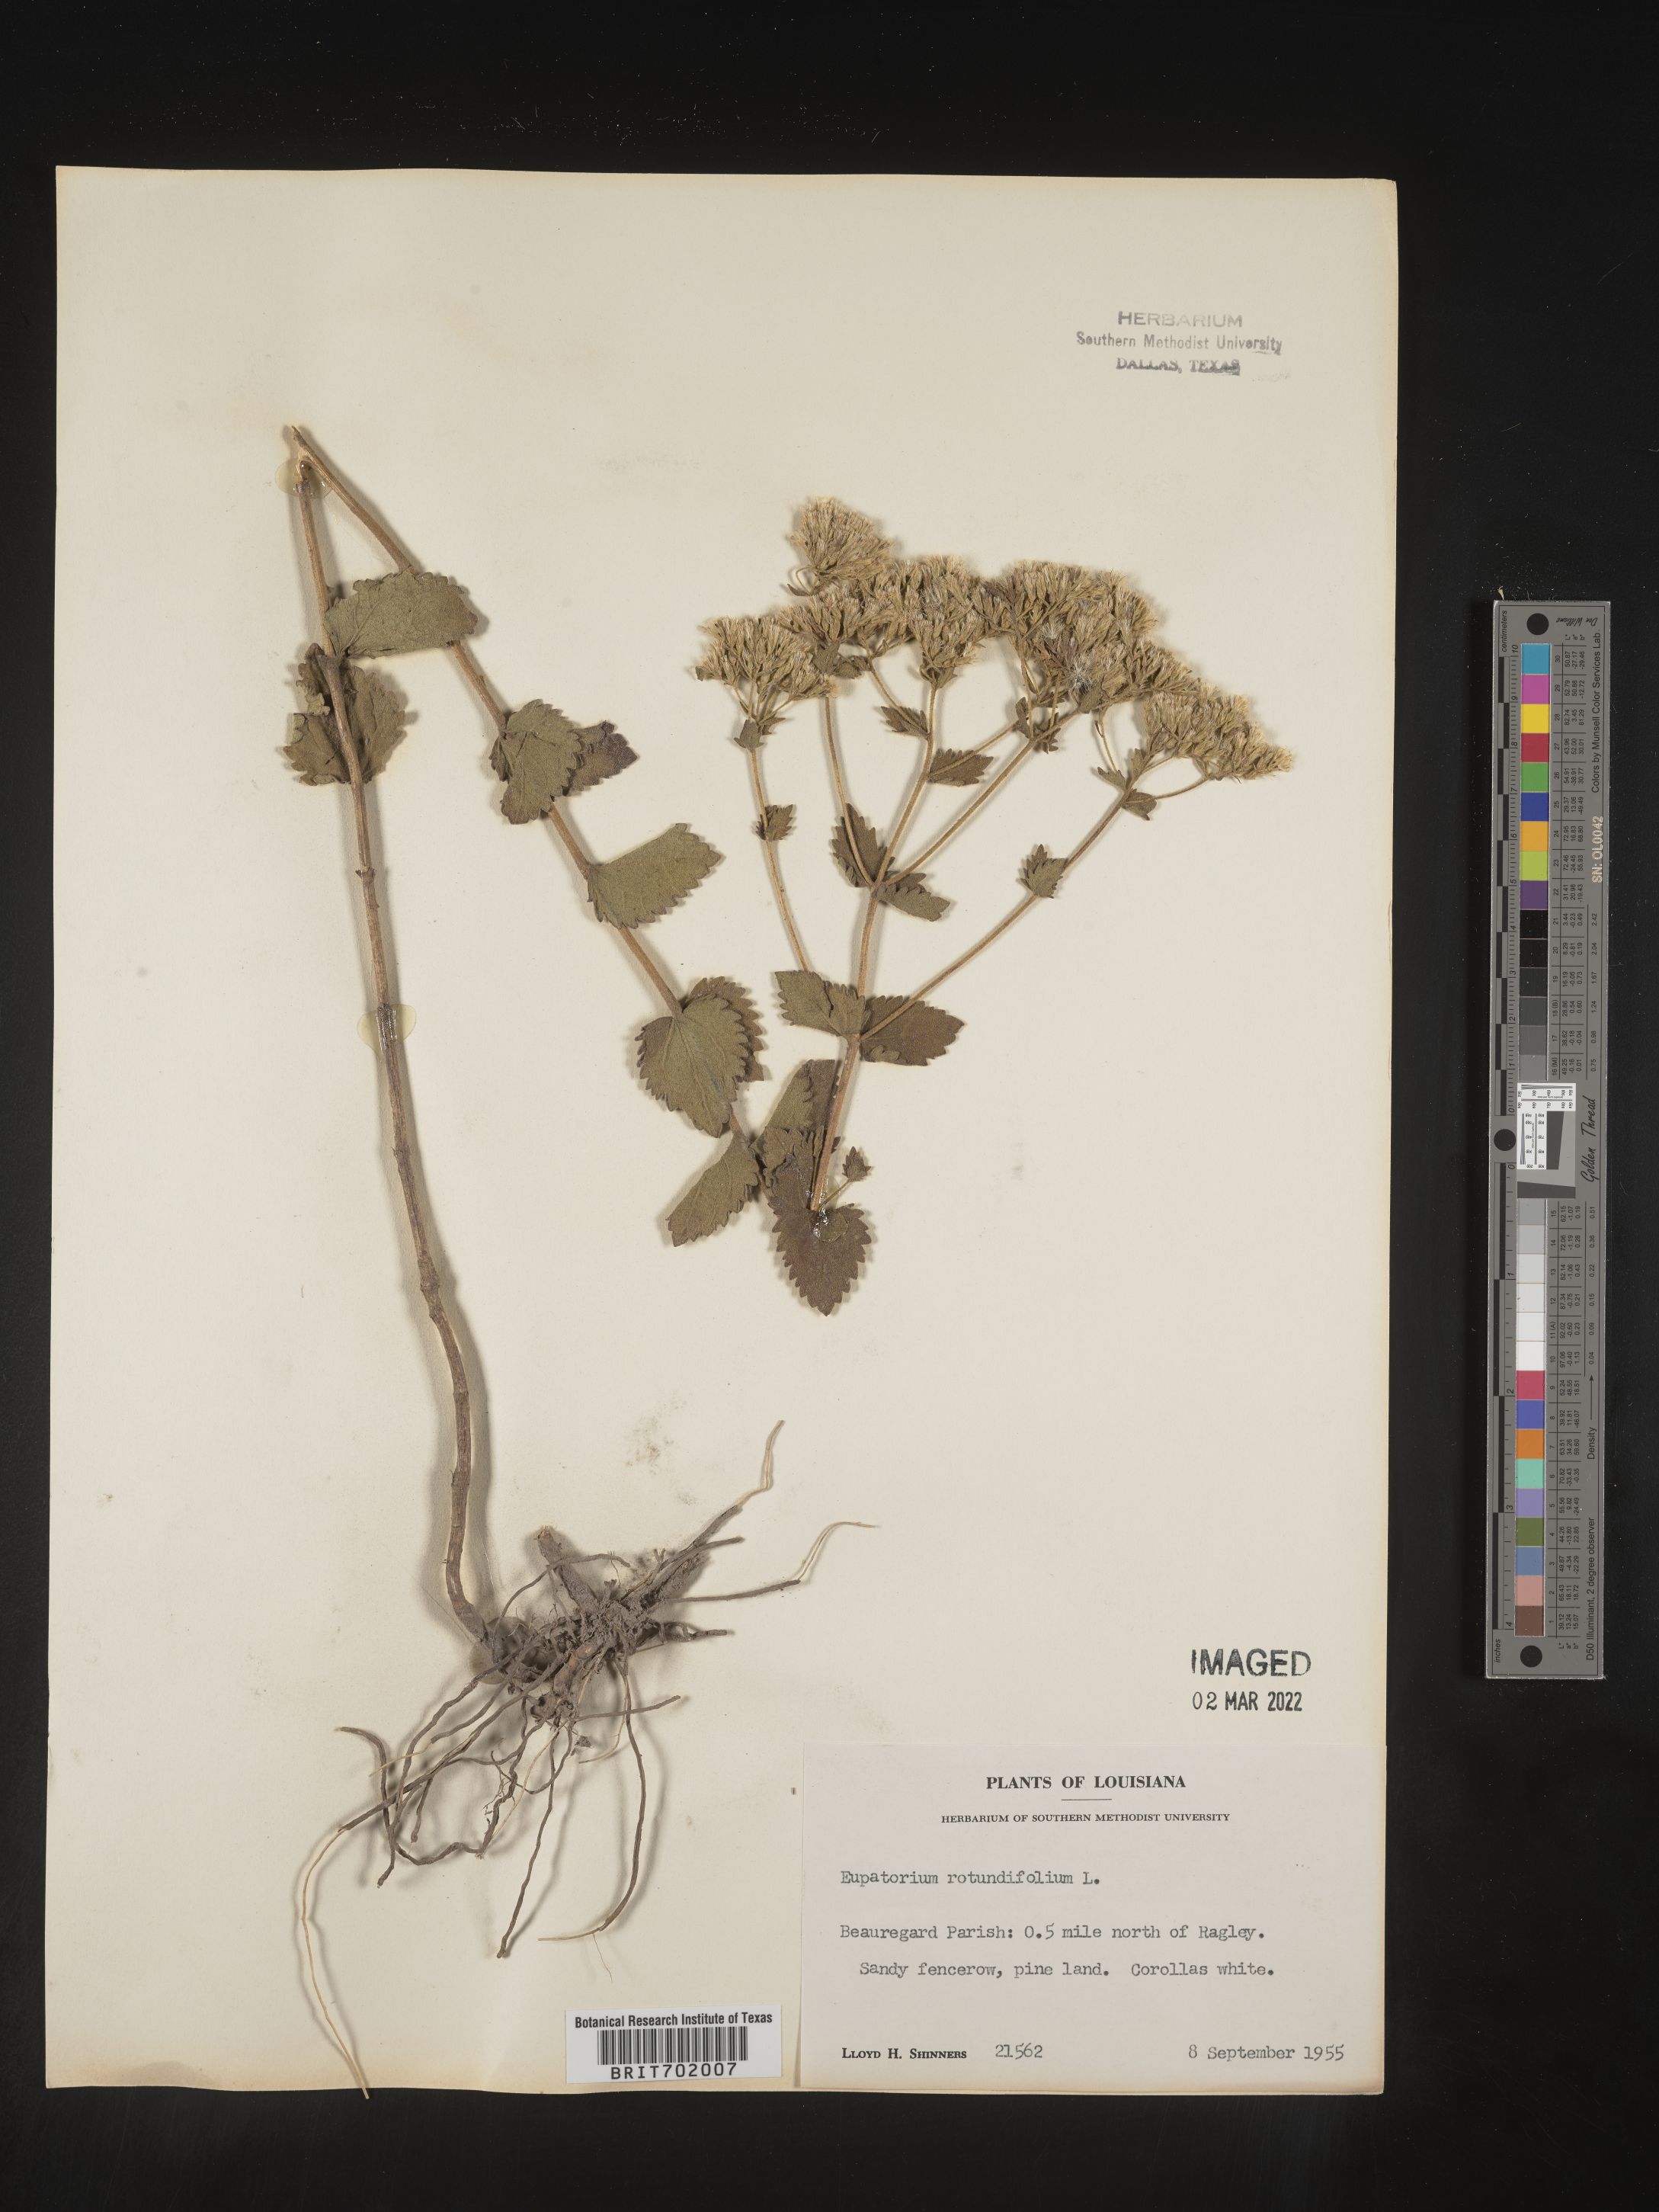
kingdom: Plantae
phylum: Tracheophyta
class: Magnoliopsida
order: Asterales
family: Asteraceae
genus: Eupatorium
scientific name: Eupatorium rotundifolium
